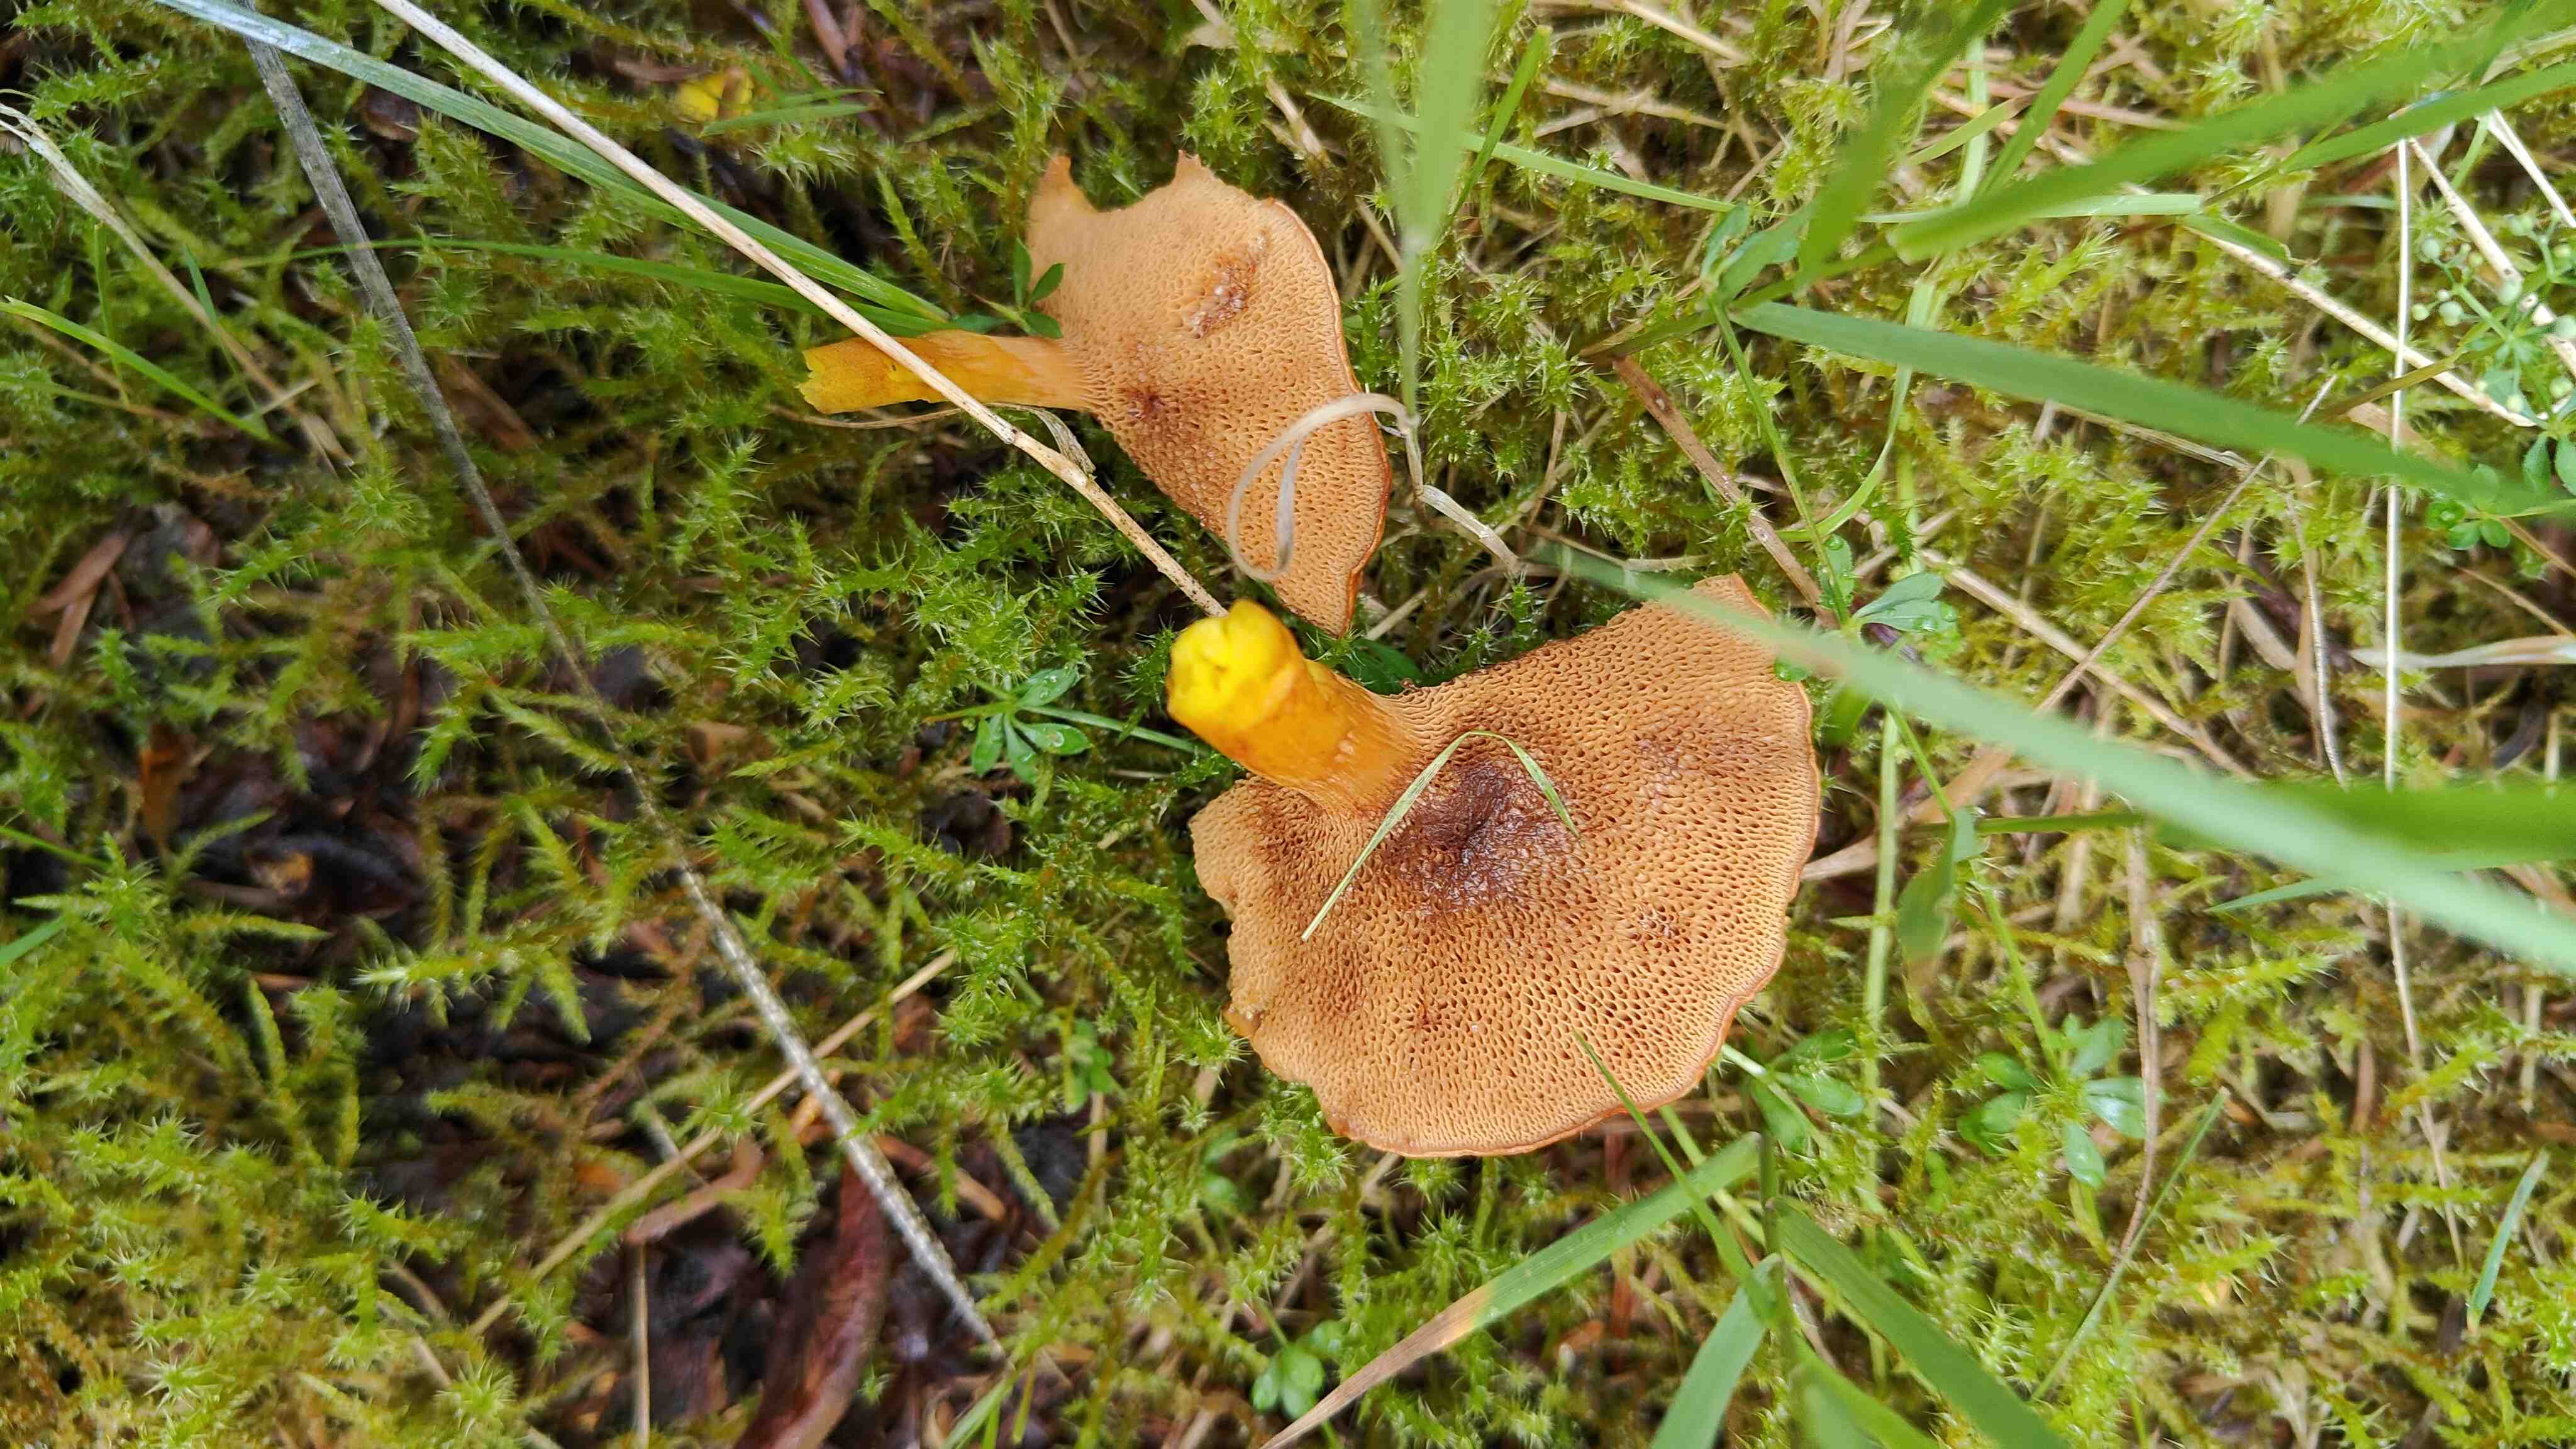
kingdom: Fungi
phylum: Basidiomycota
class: Agaricomycetes
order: Boletales
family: Boletaceae
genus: Chalciporus
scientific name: Chalciporus piperatus
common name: peberrørhat
